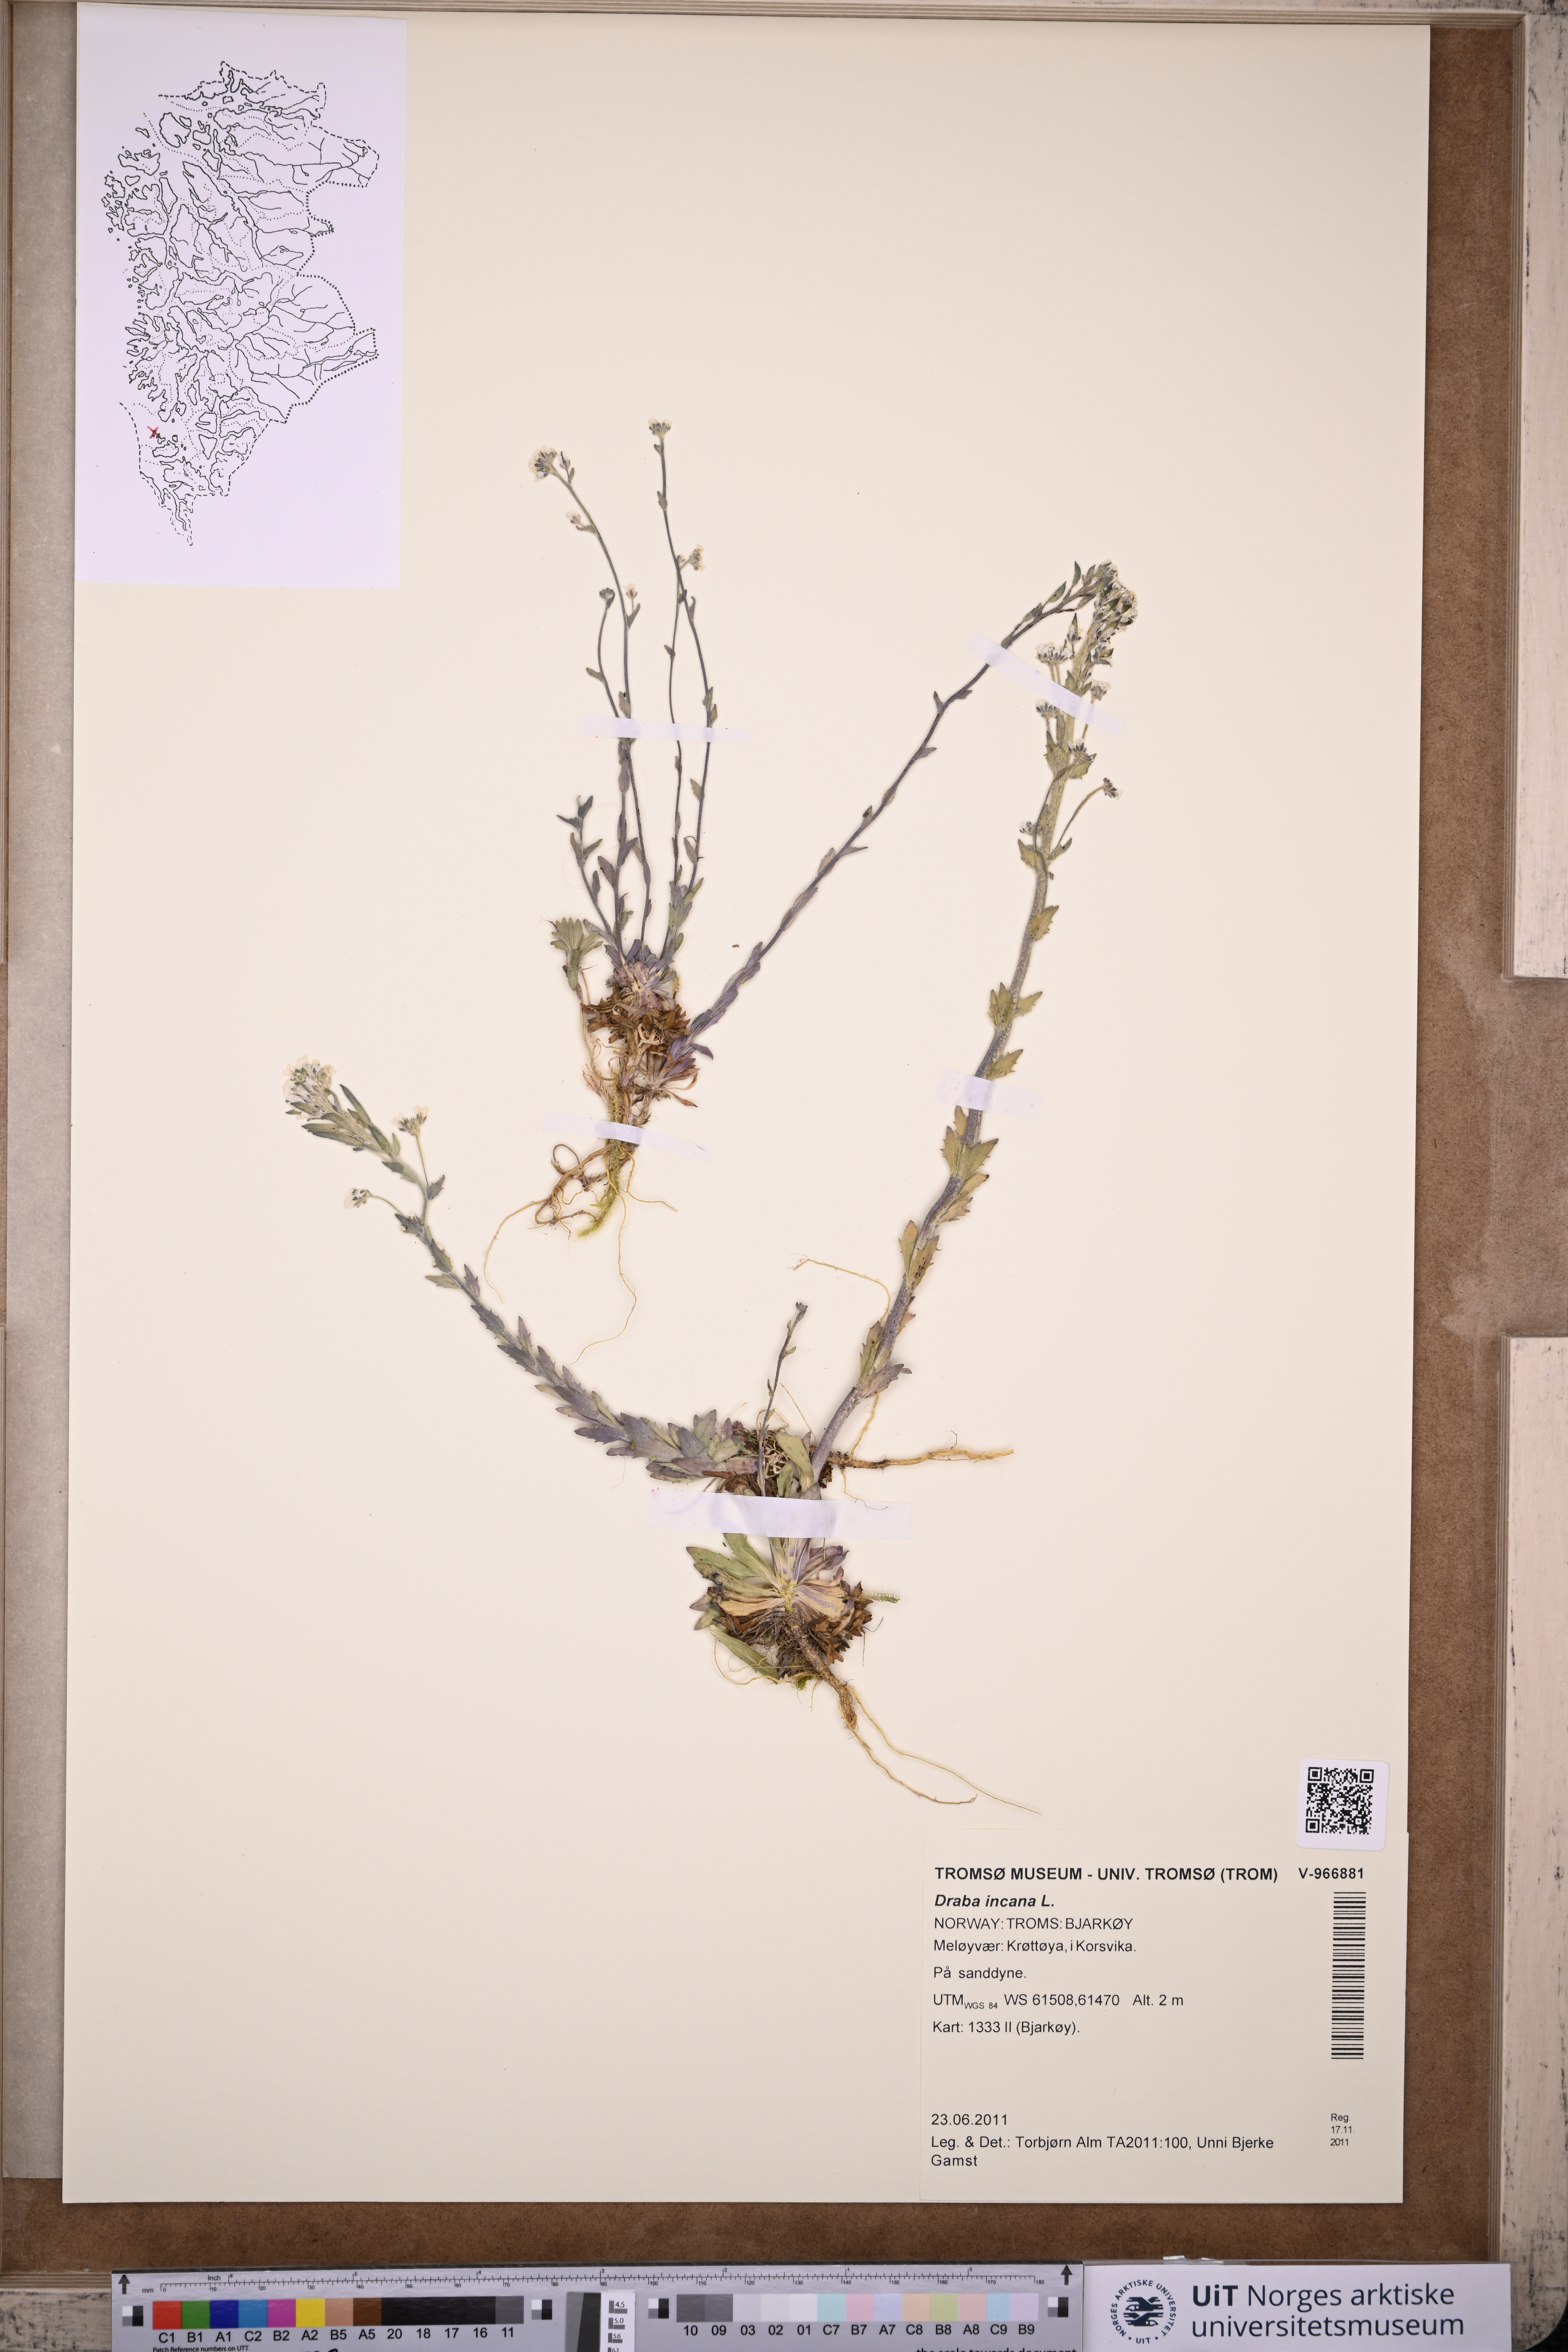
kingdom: Plantae
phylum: Tracheophyta
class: Magnoliopsida
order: Brassicales
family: Brassicaceae
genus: Draba
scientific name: Draba incana
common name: Hoary whitlow-grass
